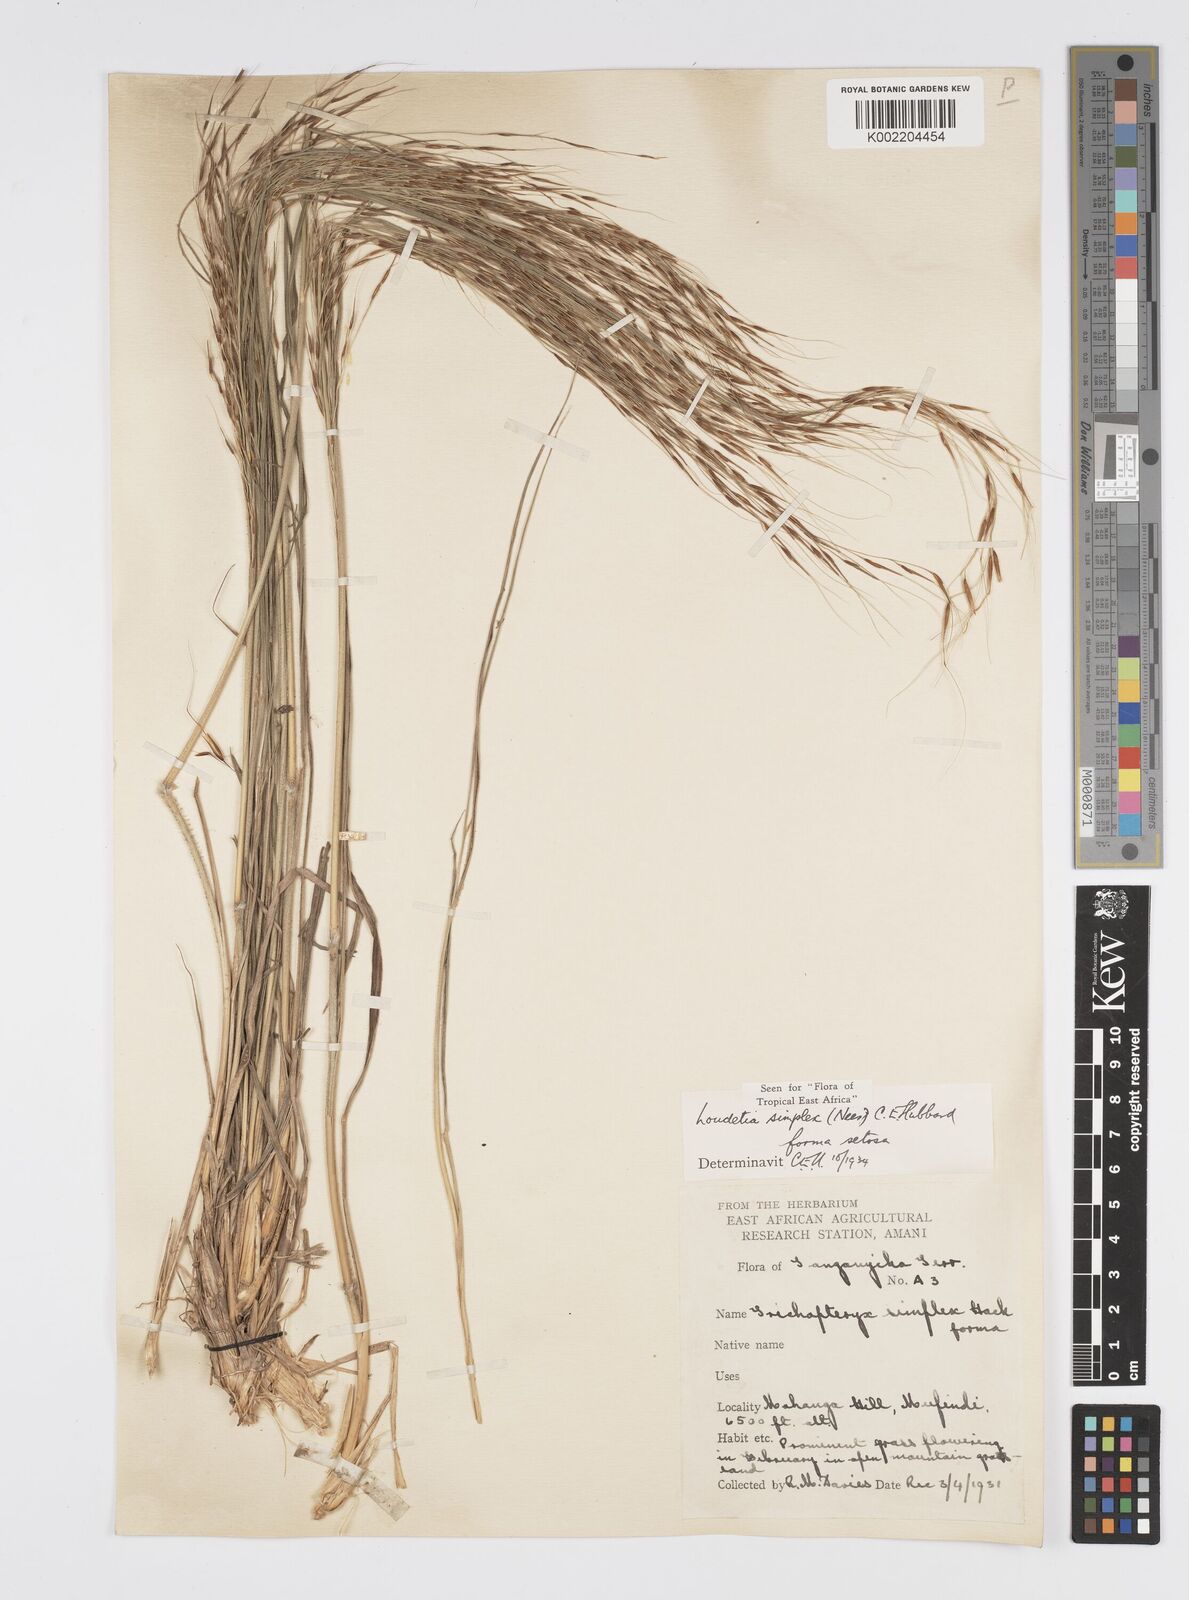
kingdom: Plantae
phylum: Tracheophyta
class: Liliopsida
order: Poales
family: Poaceae
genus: Loudetia
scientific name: Loudetia simplex
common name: Common russet grass
